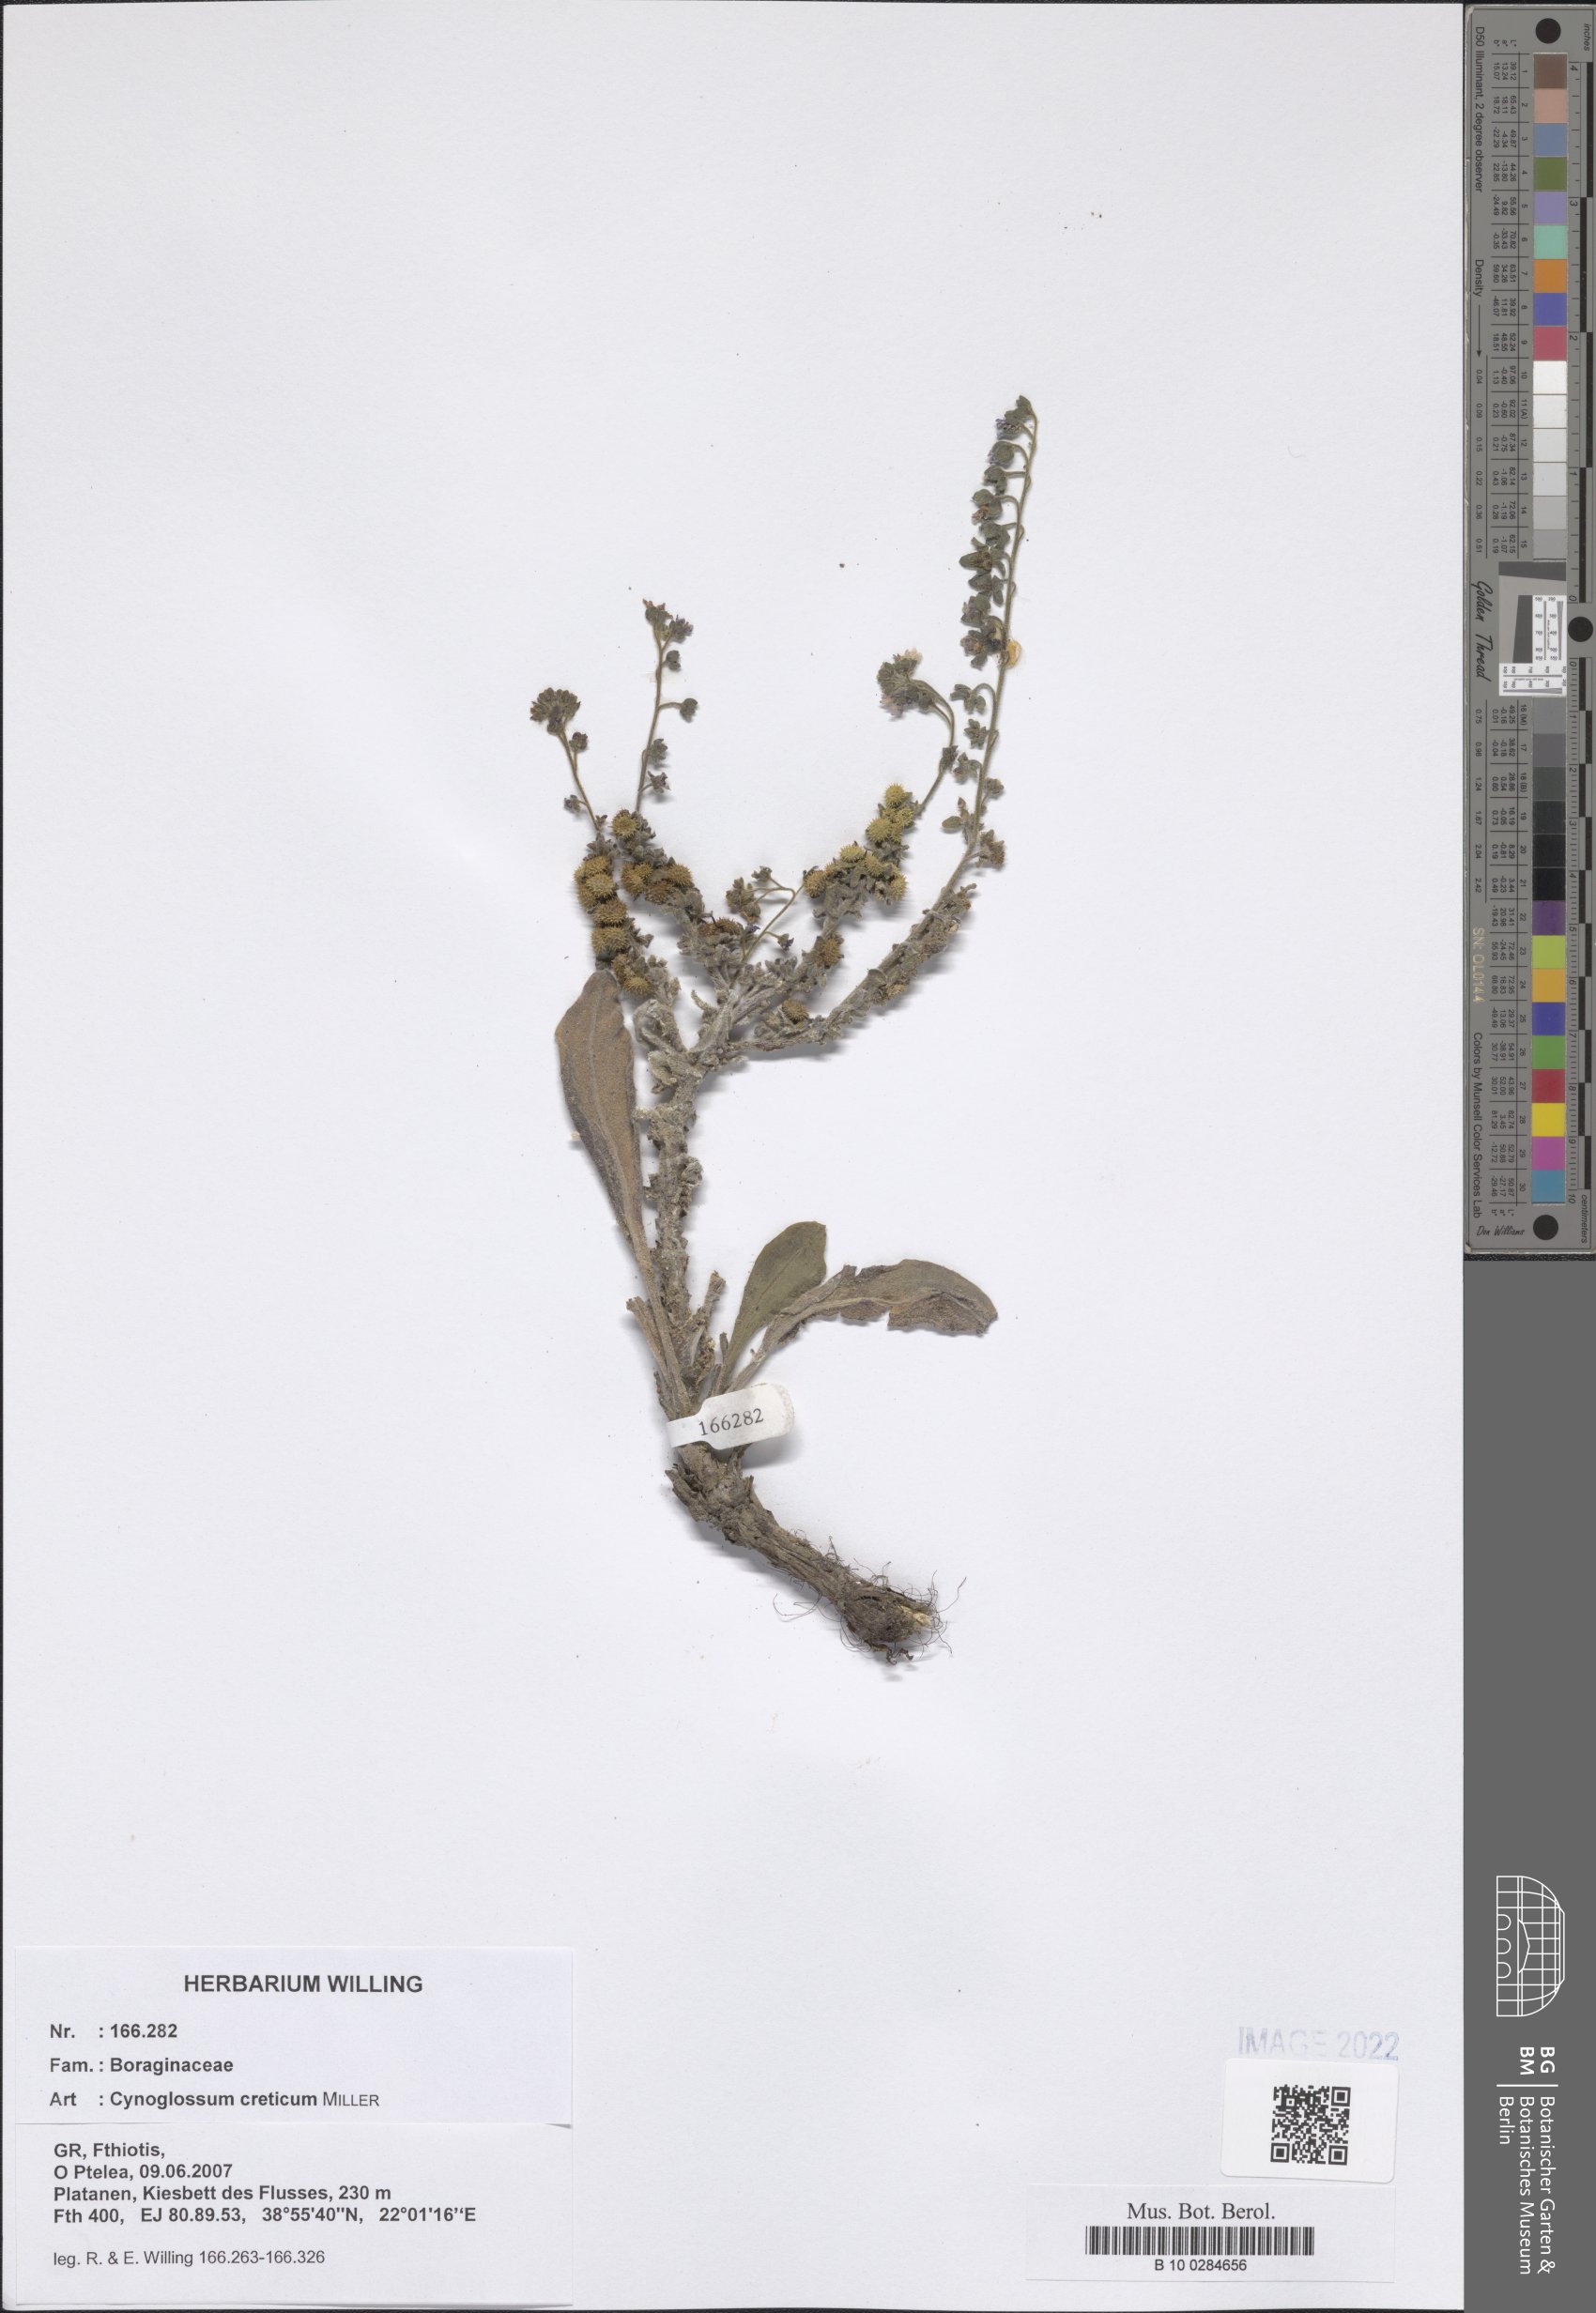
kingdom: Plantae
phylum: Tracheophyta
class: Magnoliopsida
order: Boraginales
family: Boraginaceae
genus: Cynoglossum
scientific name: Cynoglossum creticum
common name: Blue hound's tongue
